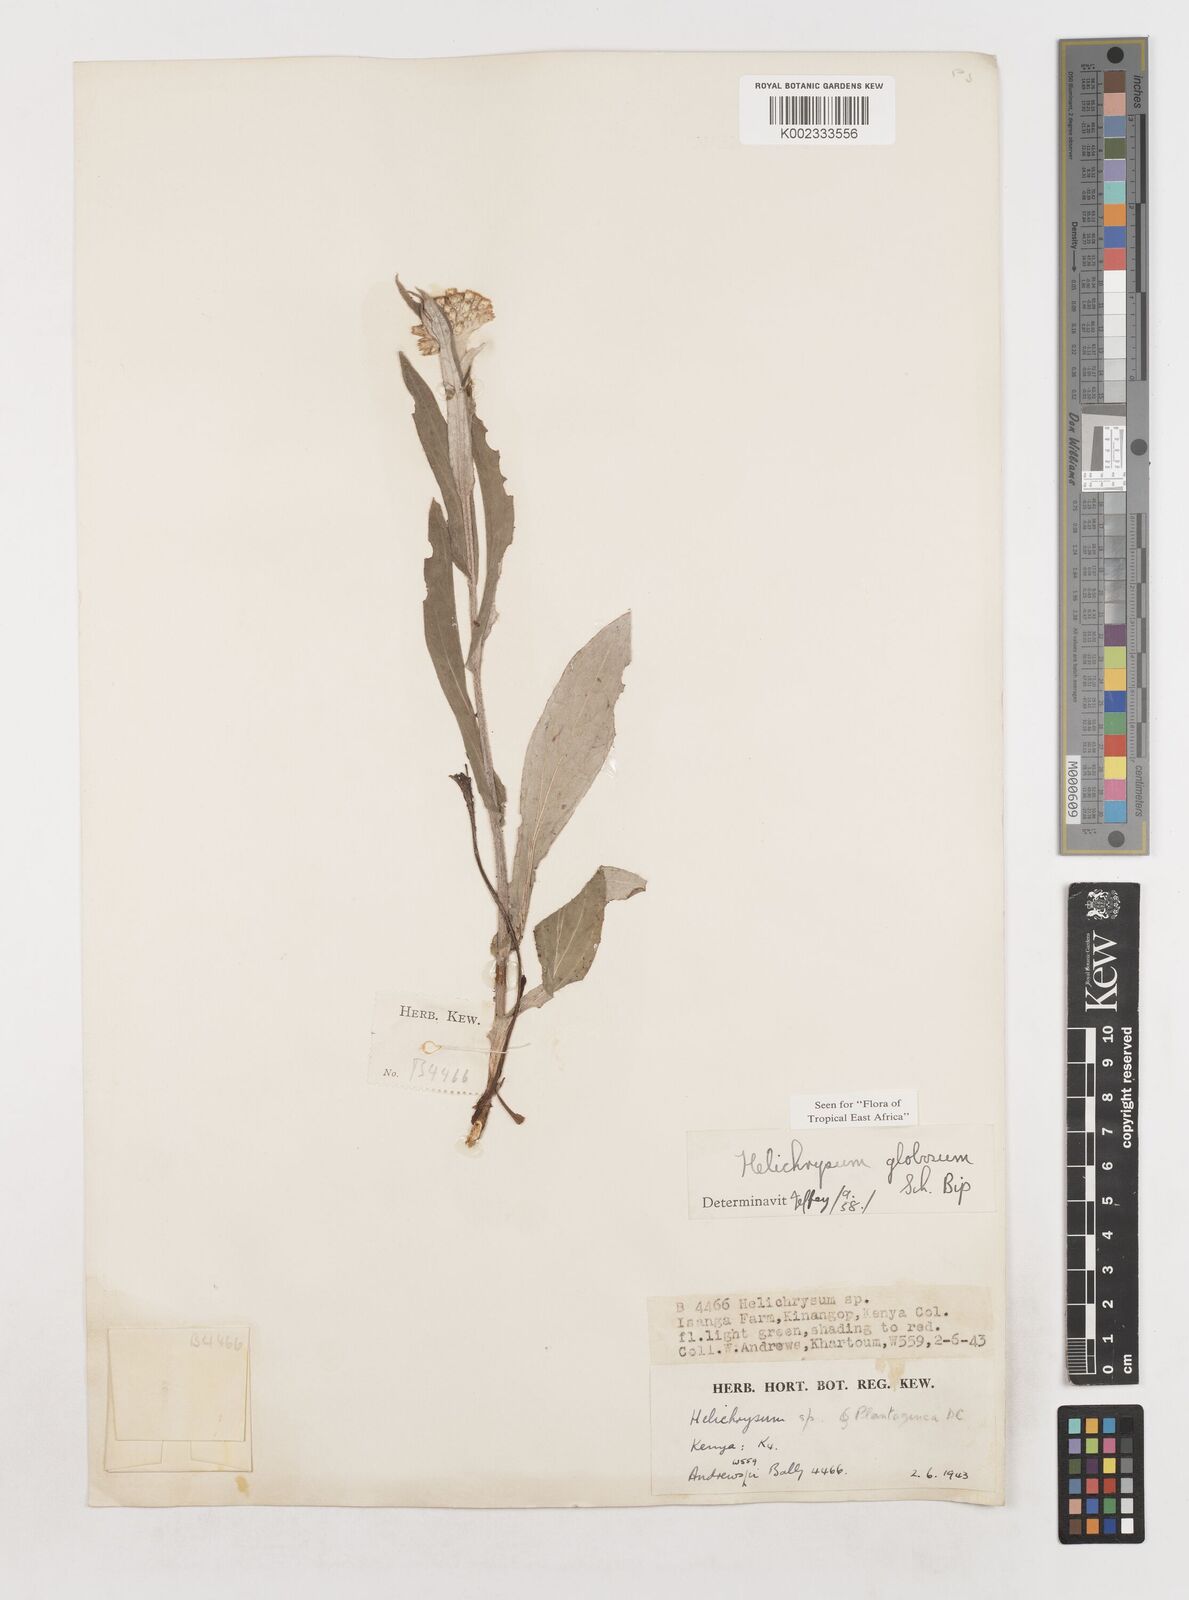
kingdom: Plantae
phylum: Tracheophyta
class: Magnoliopsida
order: Asterales
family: Asteraceae
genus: Helichrysum
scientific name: Helichrysum globosum
